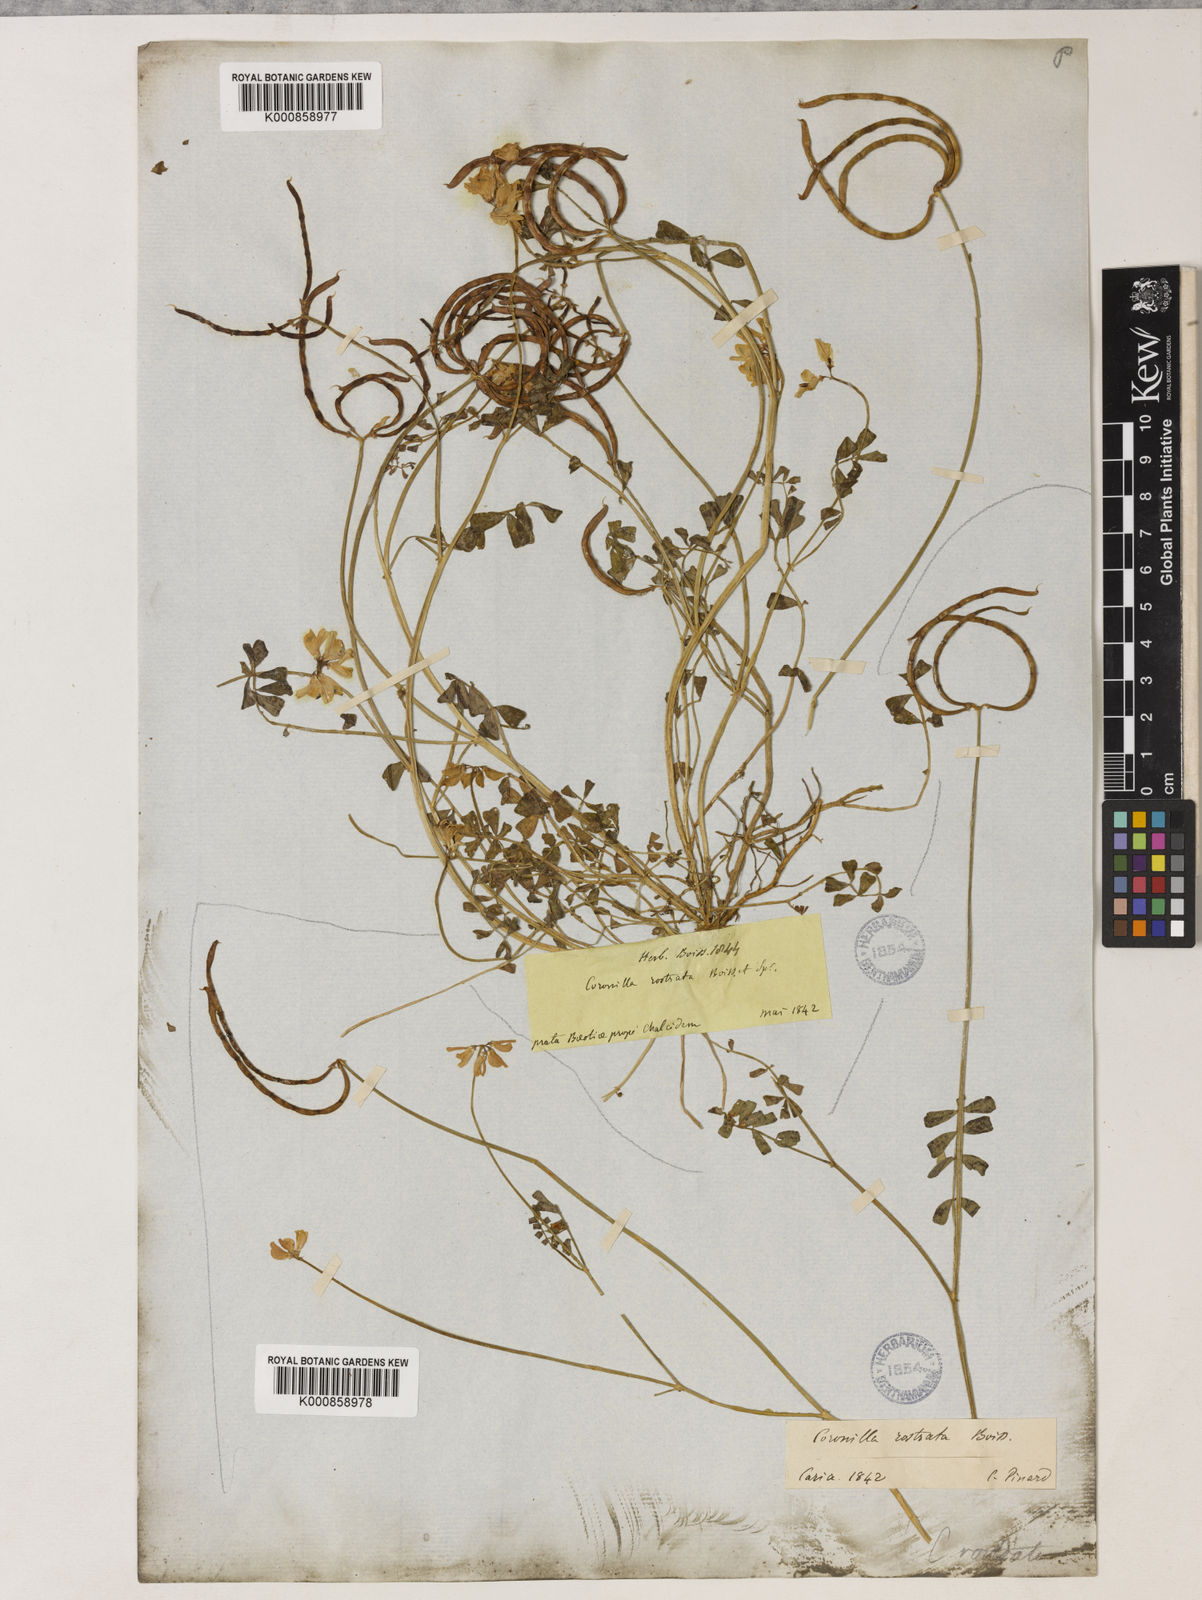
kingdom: Plantae
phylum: Tracheophyta
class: Magnoliopsida
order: Fabales
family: Fabaceae
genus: Coronilla
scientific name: Coronilla rostrata
